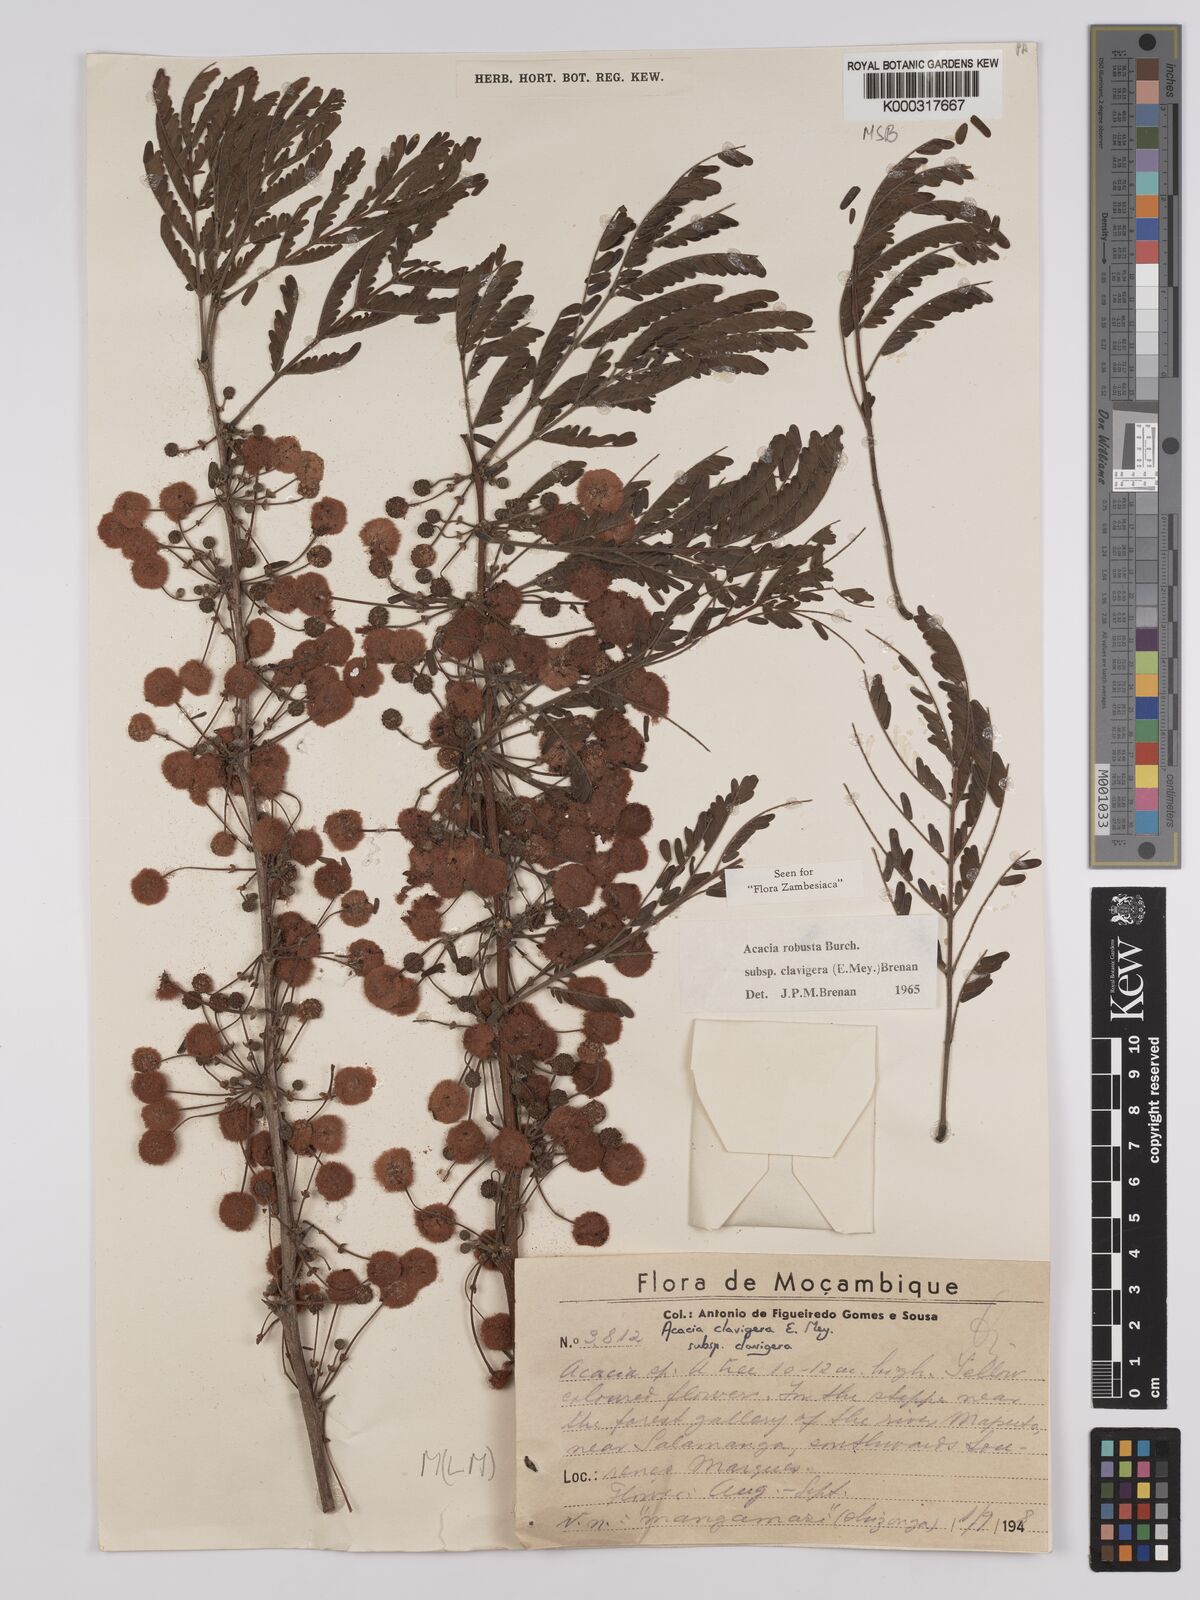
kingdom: Plantae
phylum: Tracheophyta
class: Magnoliopsida
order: Fabales
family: Fabaceae
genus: Vachellia
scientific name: Vachellia robusta
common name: Ankle thorn
